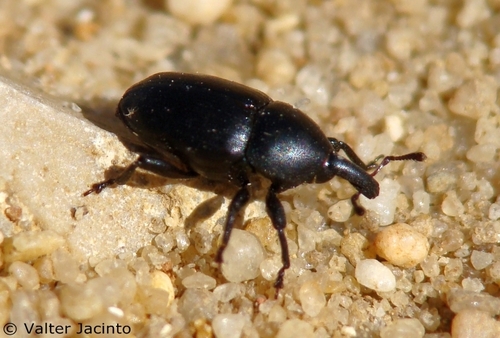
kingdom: Animalia
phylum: Arthropoda
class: Insecta
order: Coleoptera
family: Curculionidae
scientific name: Curculionidae
